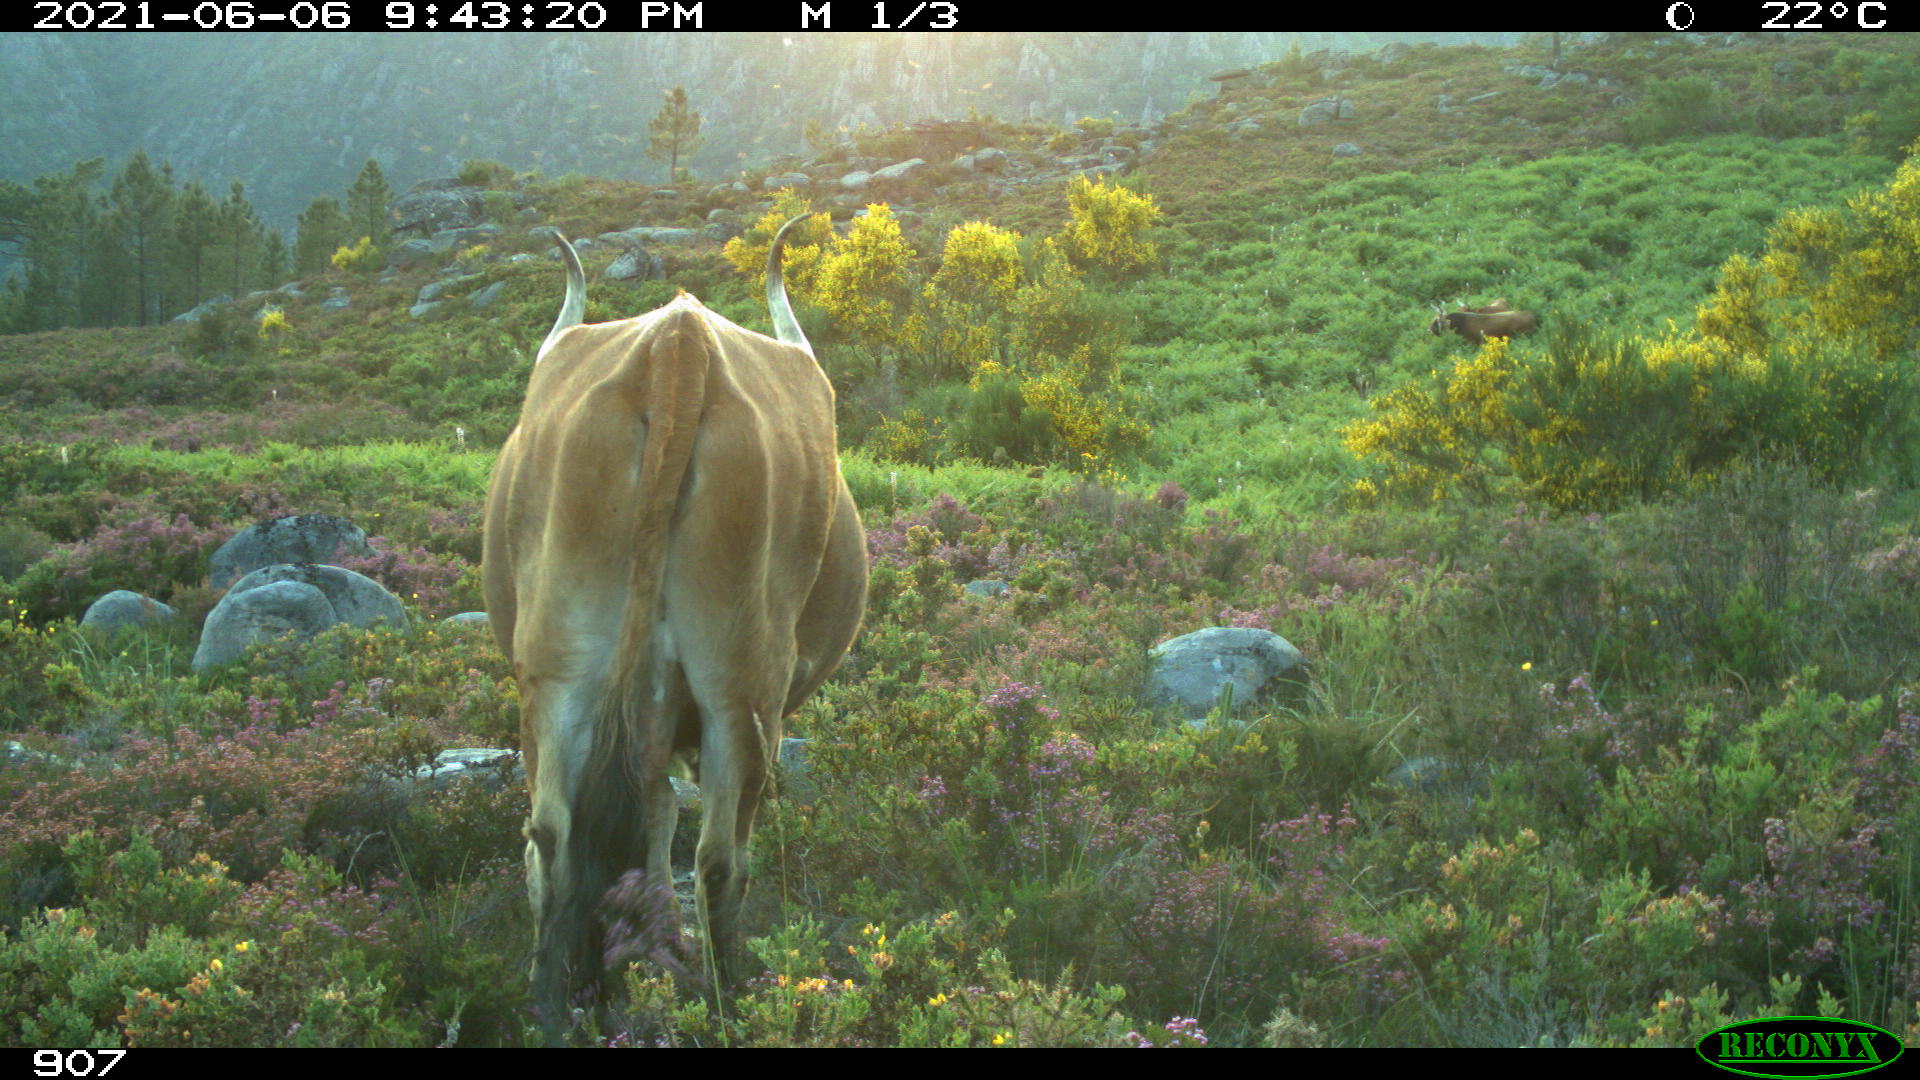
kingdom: Animalia
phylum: Chordata
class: Mammalia
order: Artiodactyla
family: Bovidae
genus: Bos
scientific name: Bos taurus
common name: Domesticated cattle
